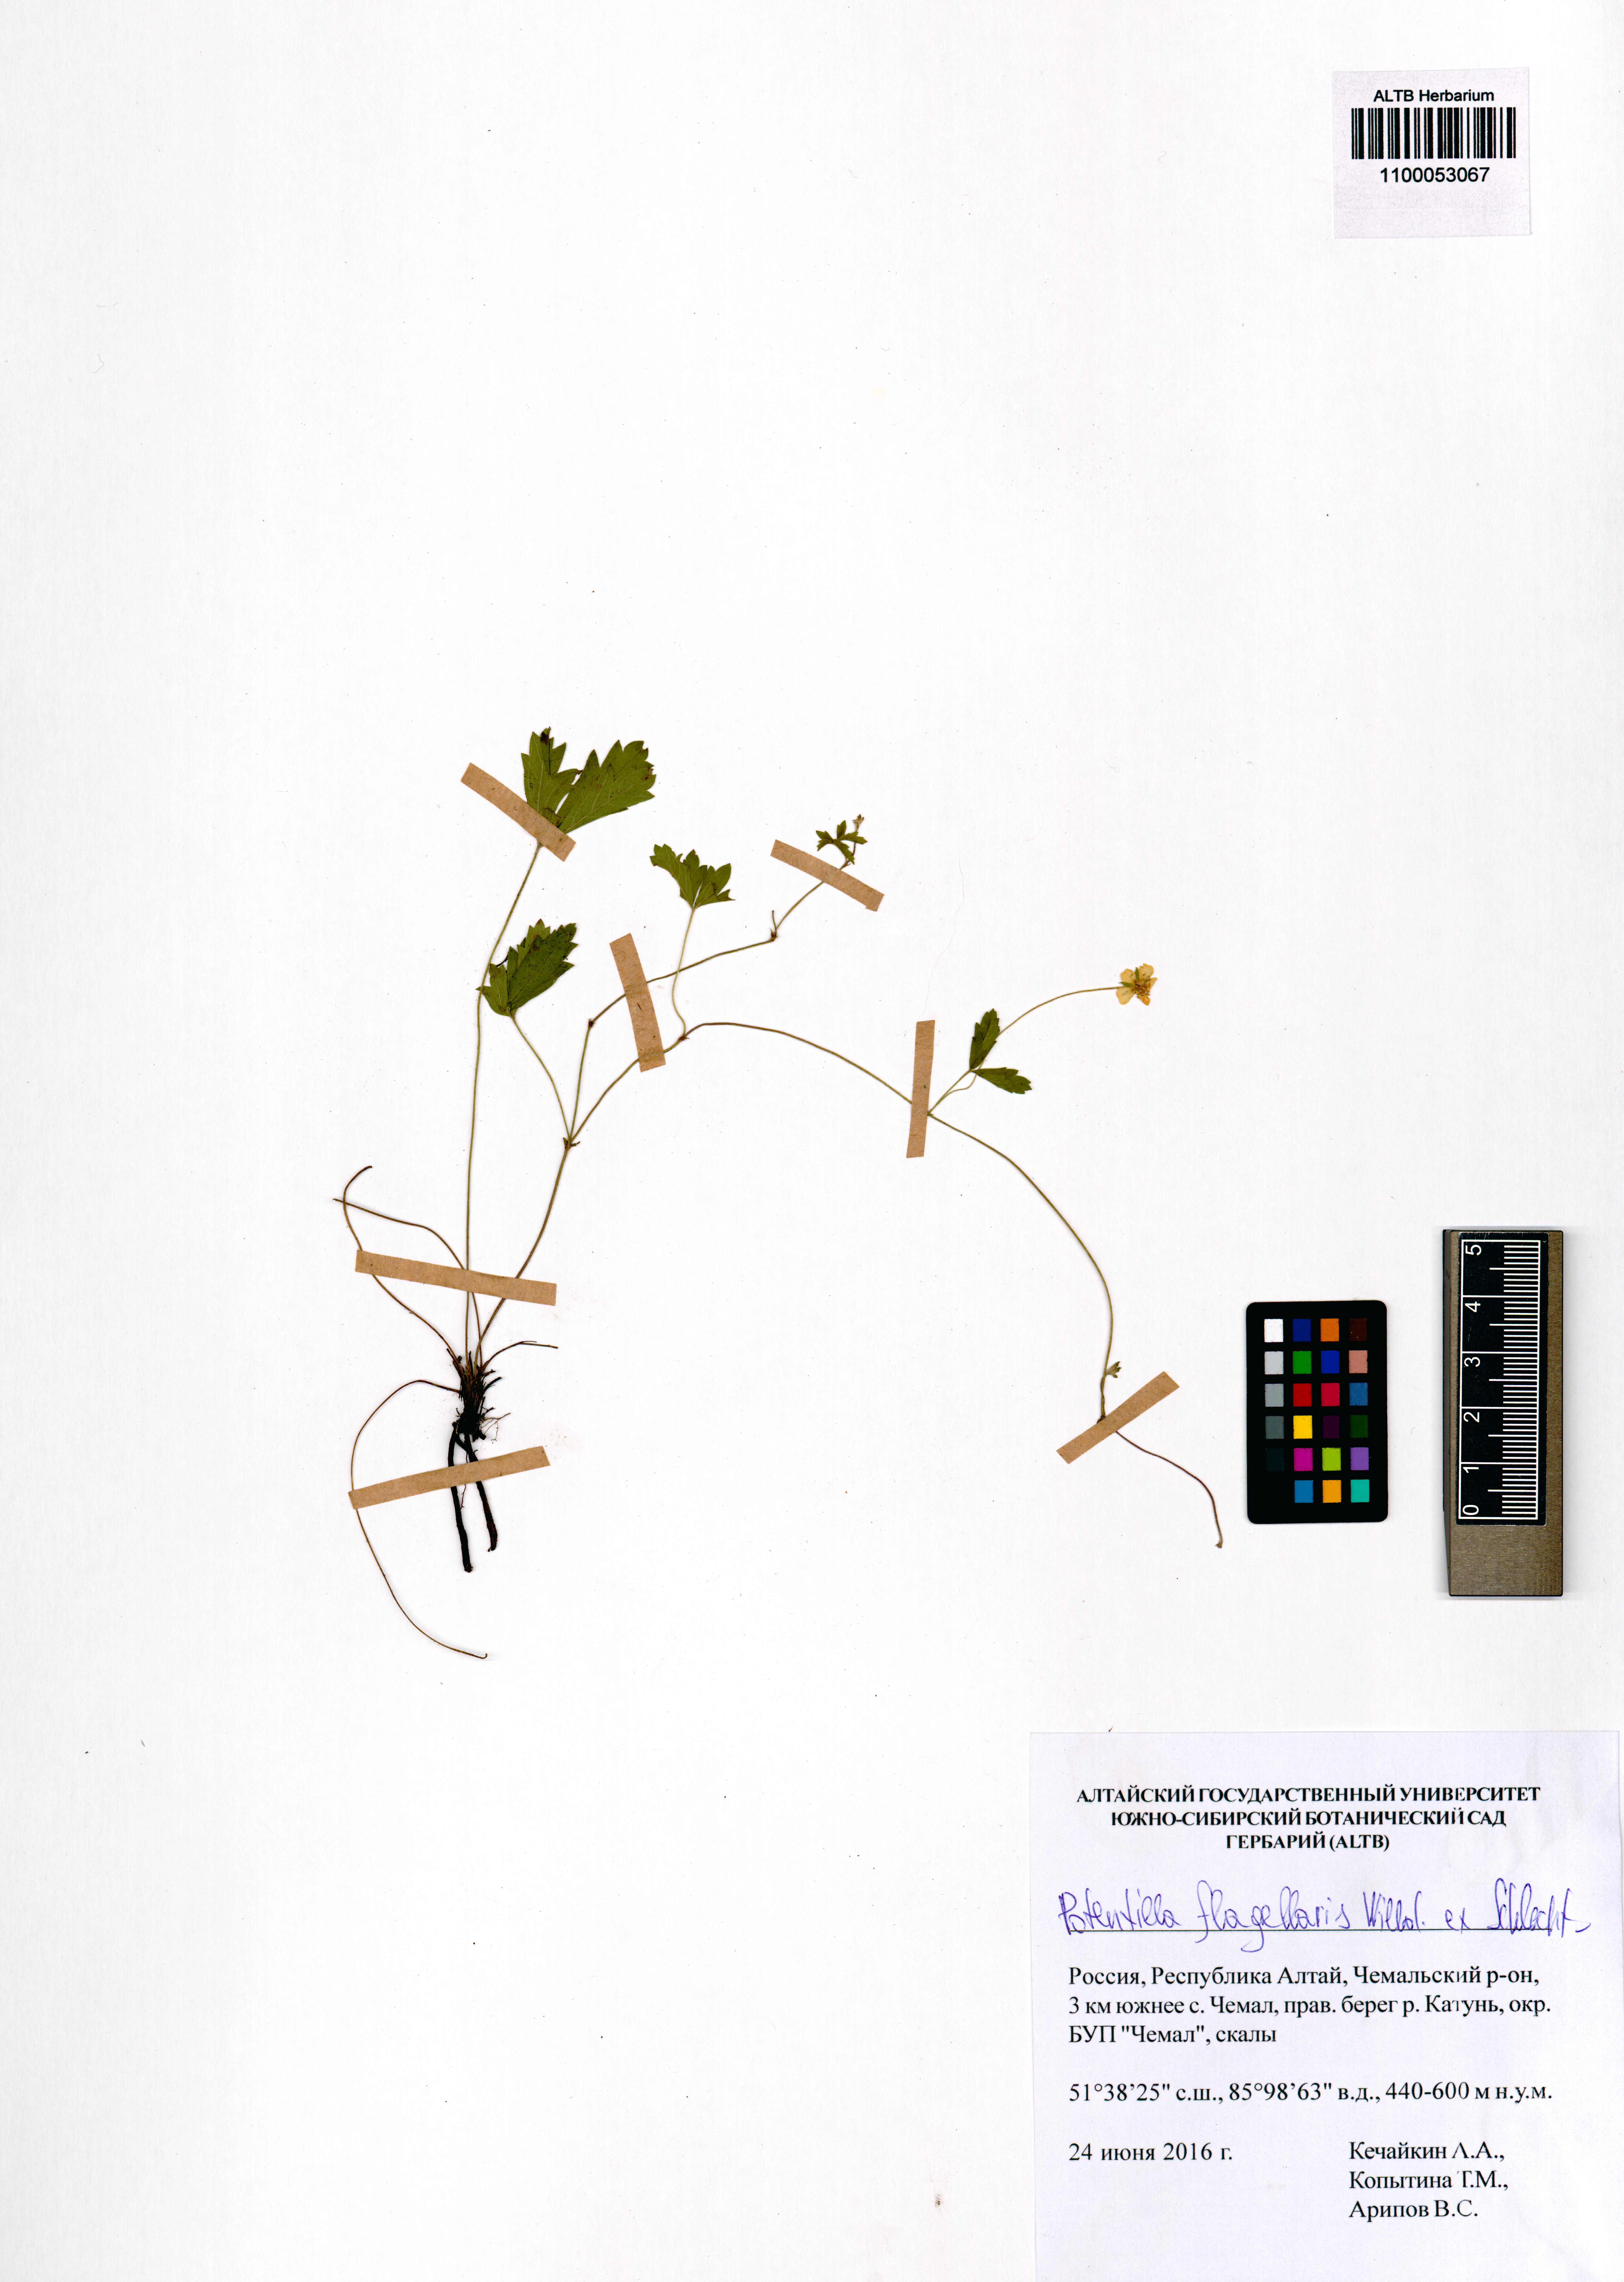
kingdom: Plantae
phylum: Tracheophyta
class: Magnoliopsida
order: Rosales
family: Rosaceae
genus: Potentilla
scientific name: Potentilla flagellaris
